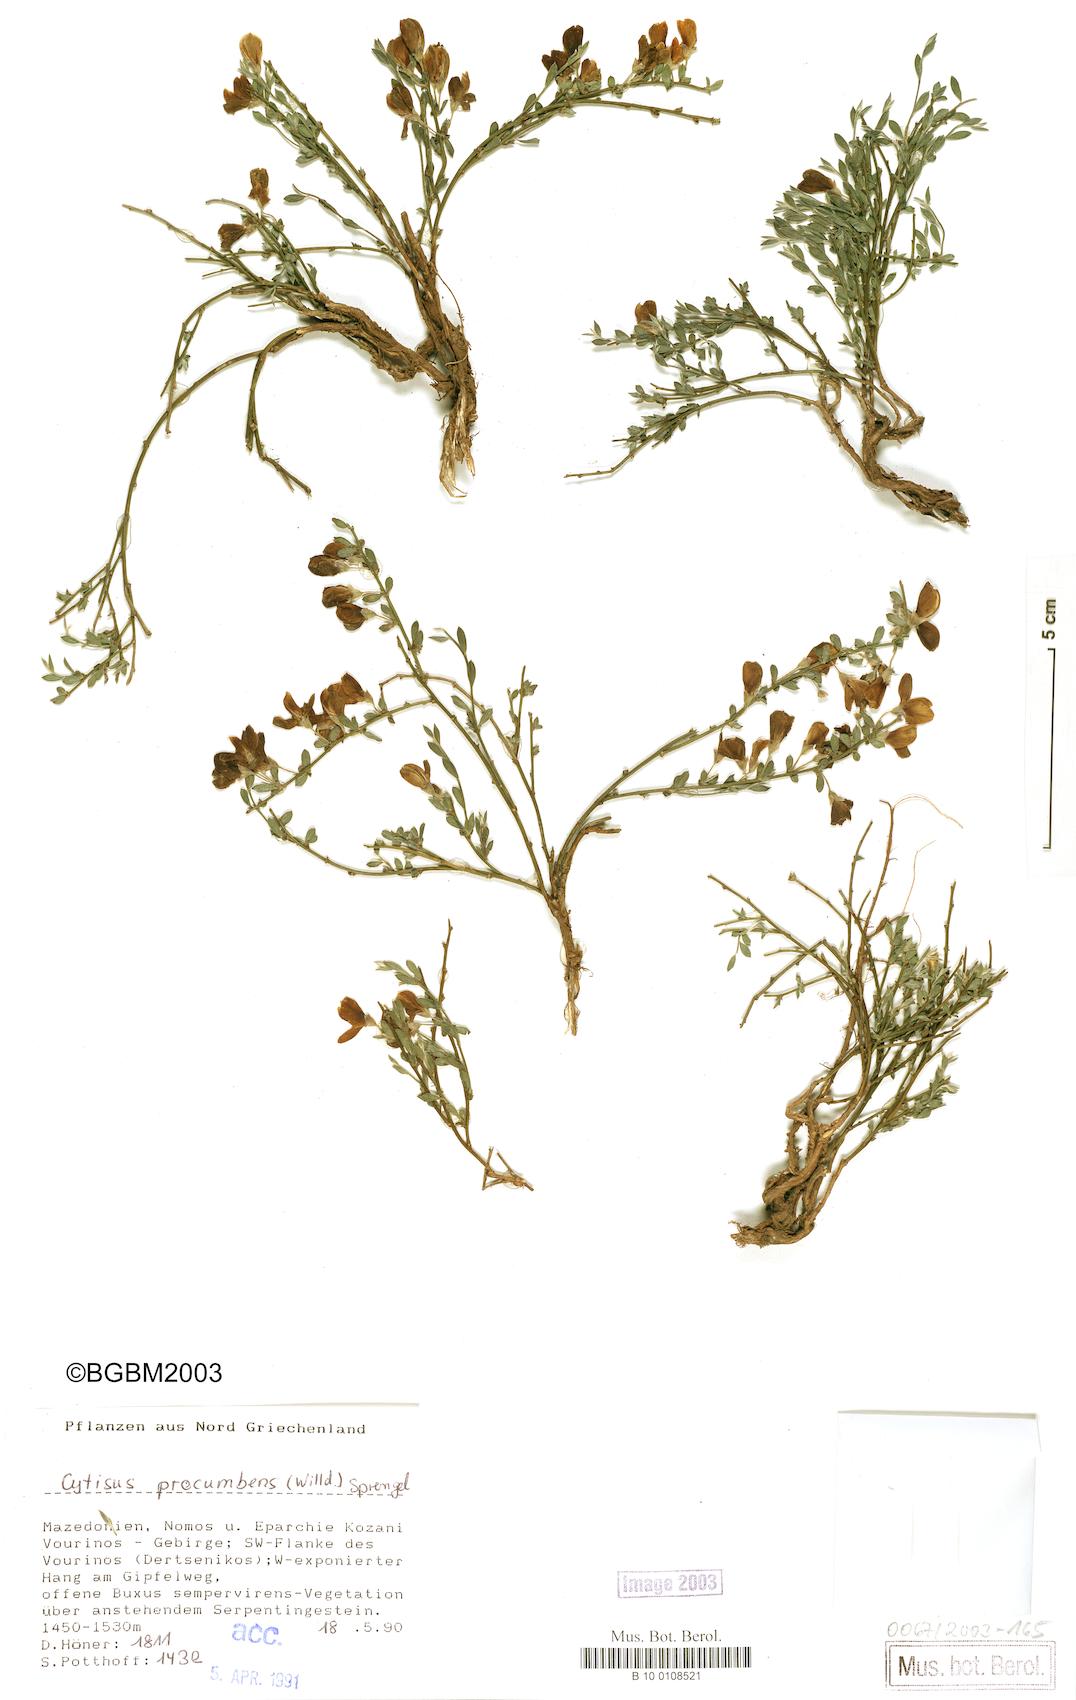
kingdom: Plantae
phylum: Tracheophyta
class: Magnoliopsida
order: Fabales
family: Fabaceae
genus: Cytisus
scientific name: Cytisus procumbens
